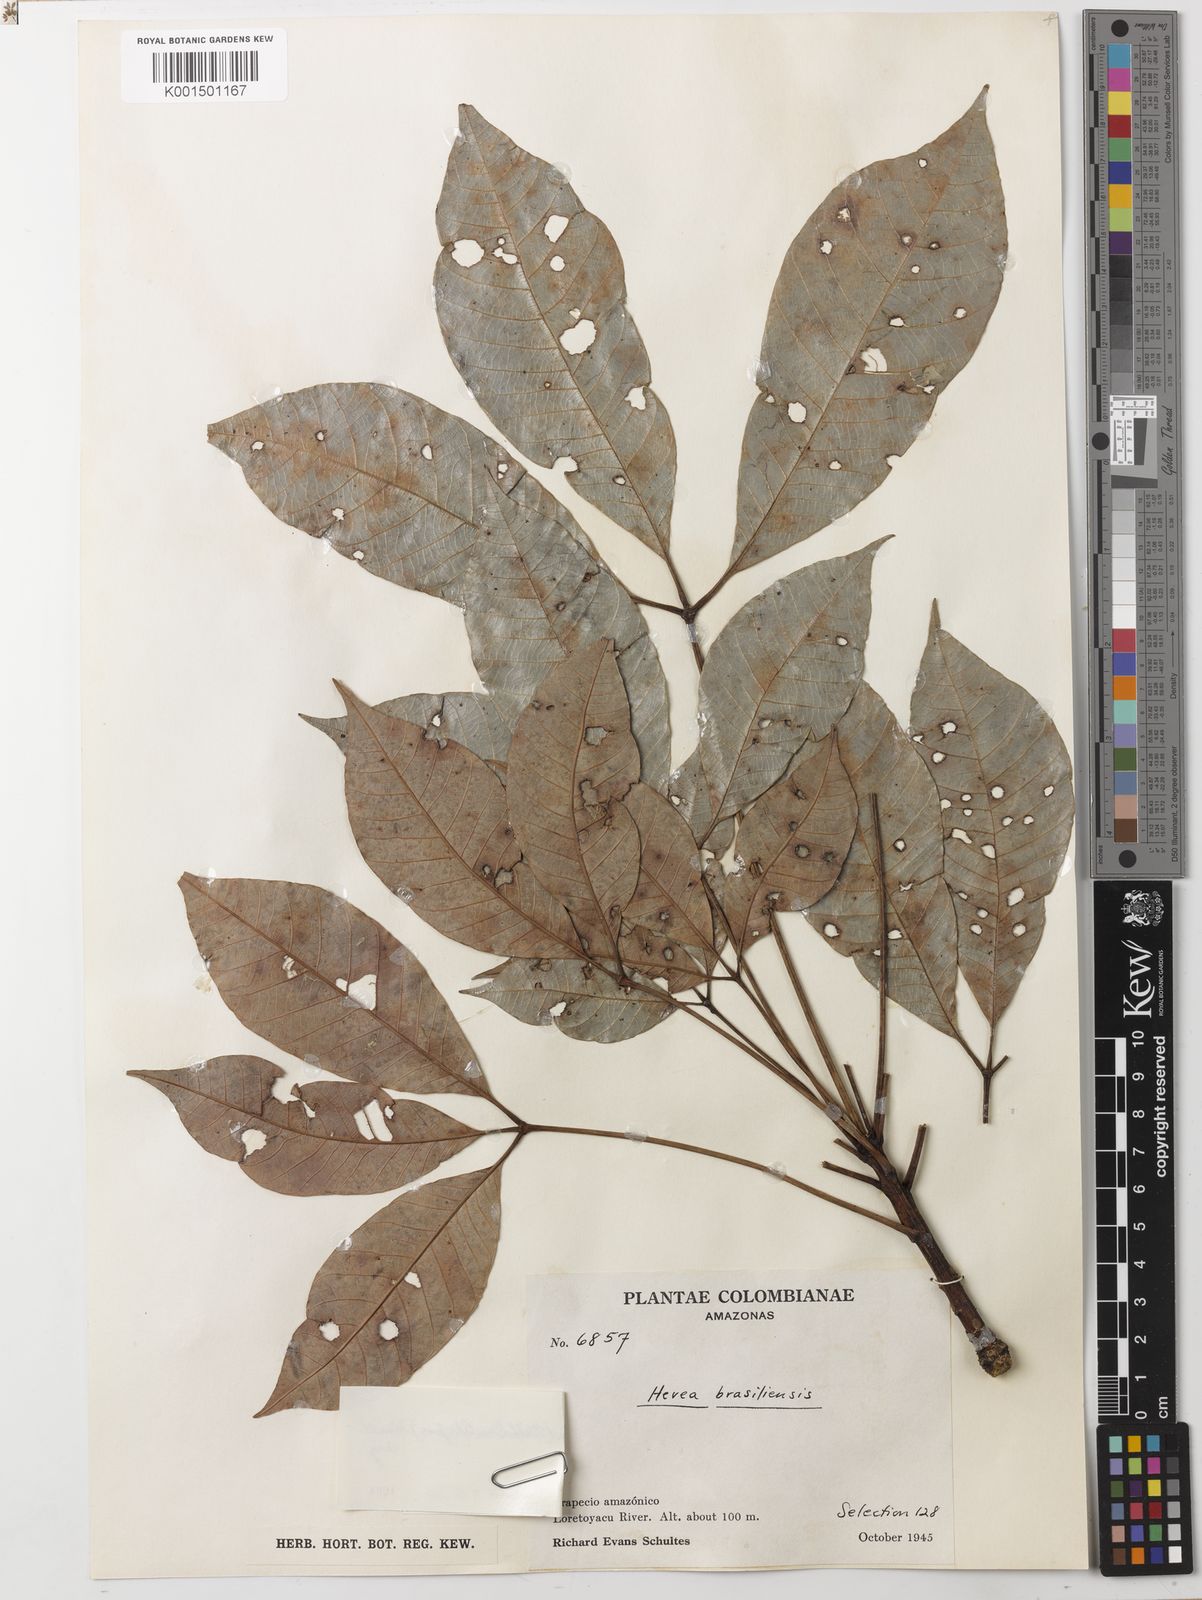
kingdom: Plantae
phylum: Tracheophyta
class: Magnoliopsida
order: Malpighiales
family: Euphorbiaceae
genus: Hevea
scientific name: Hevea brasiliensis
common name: Natural rubber
